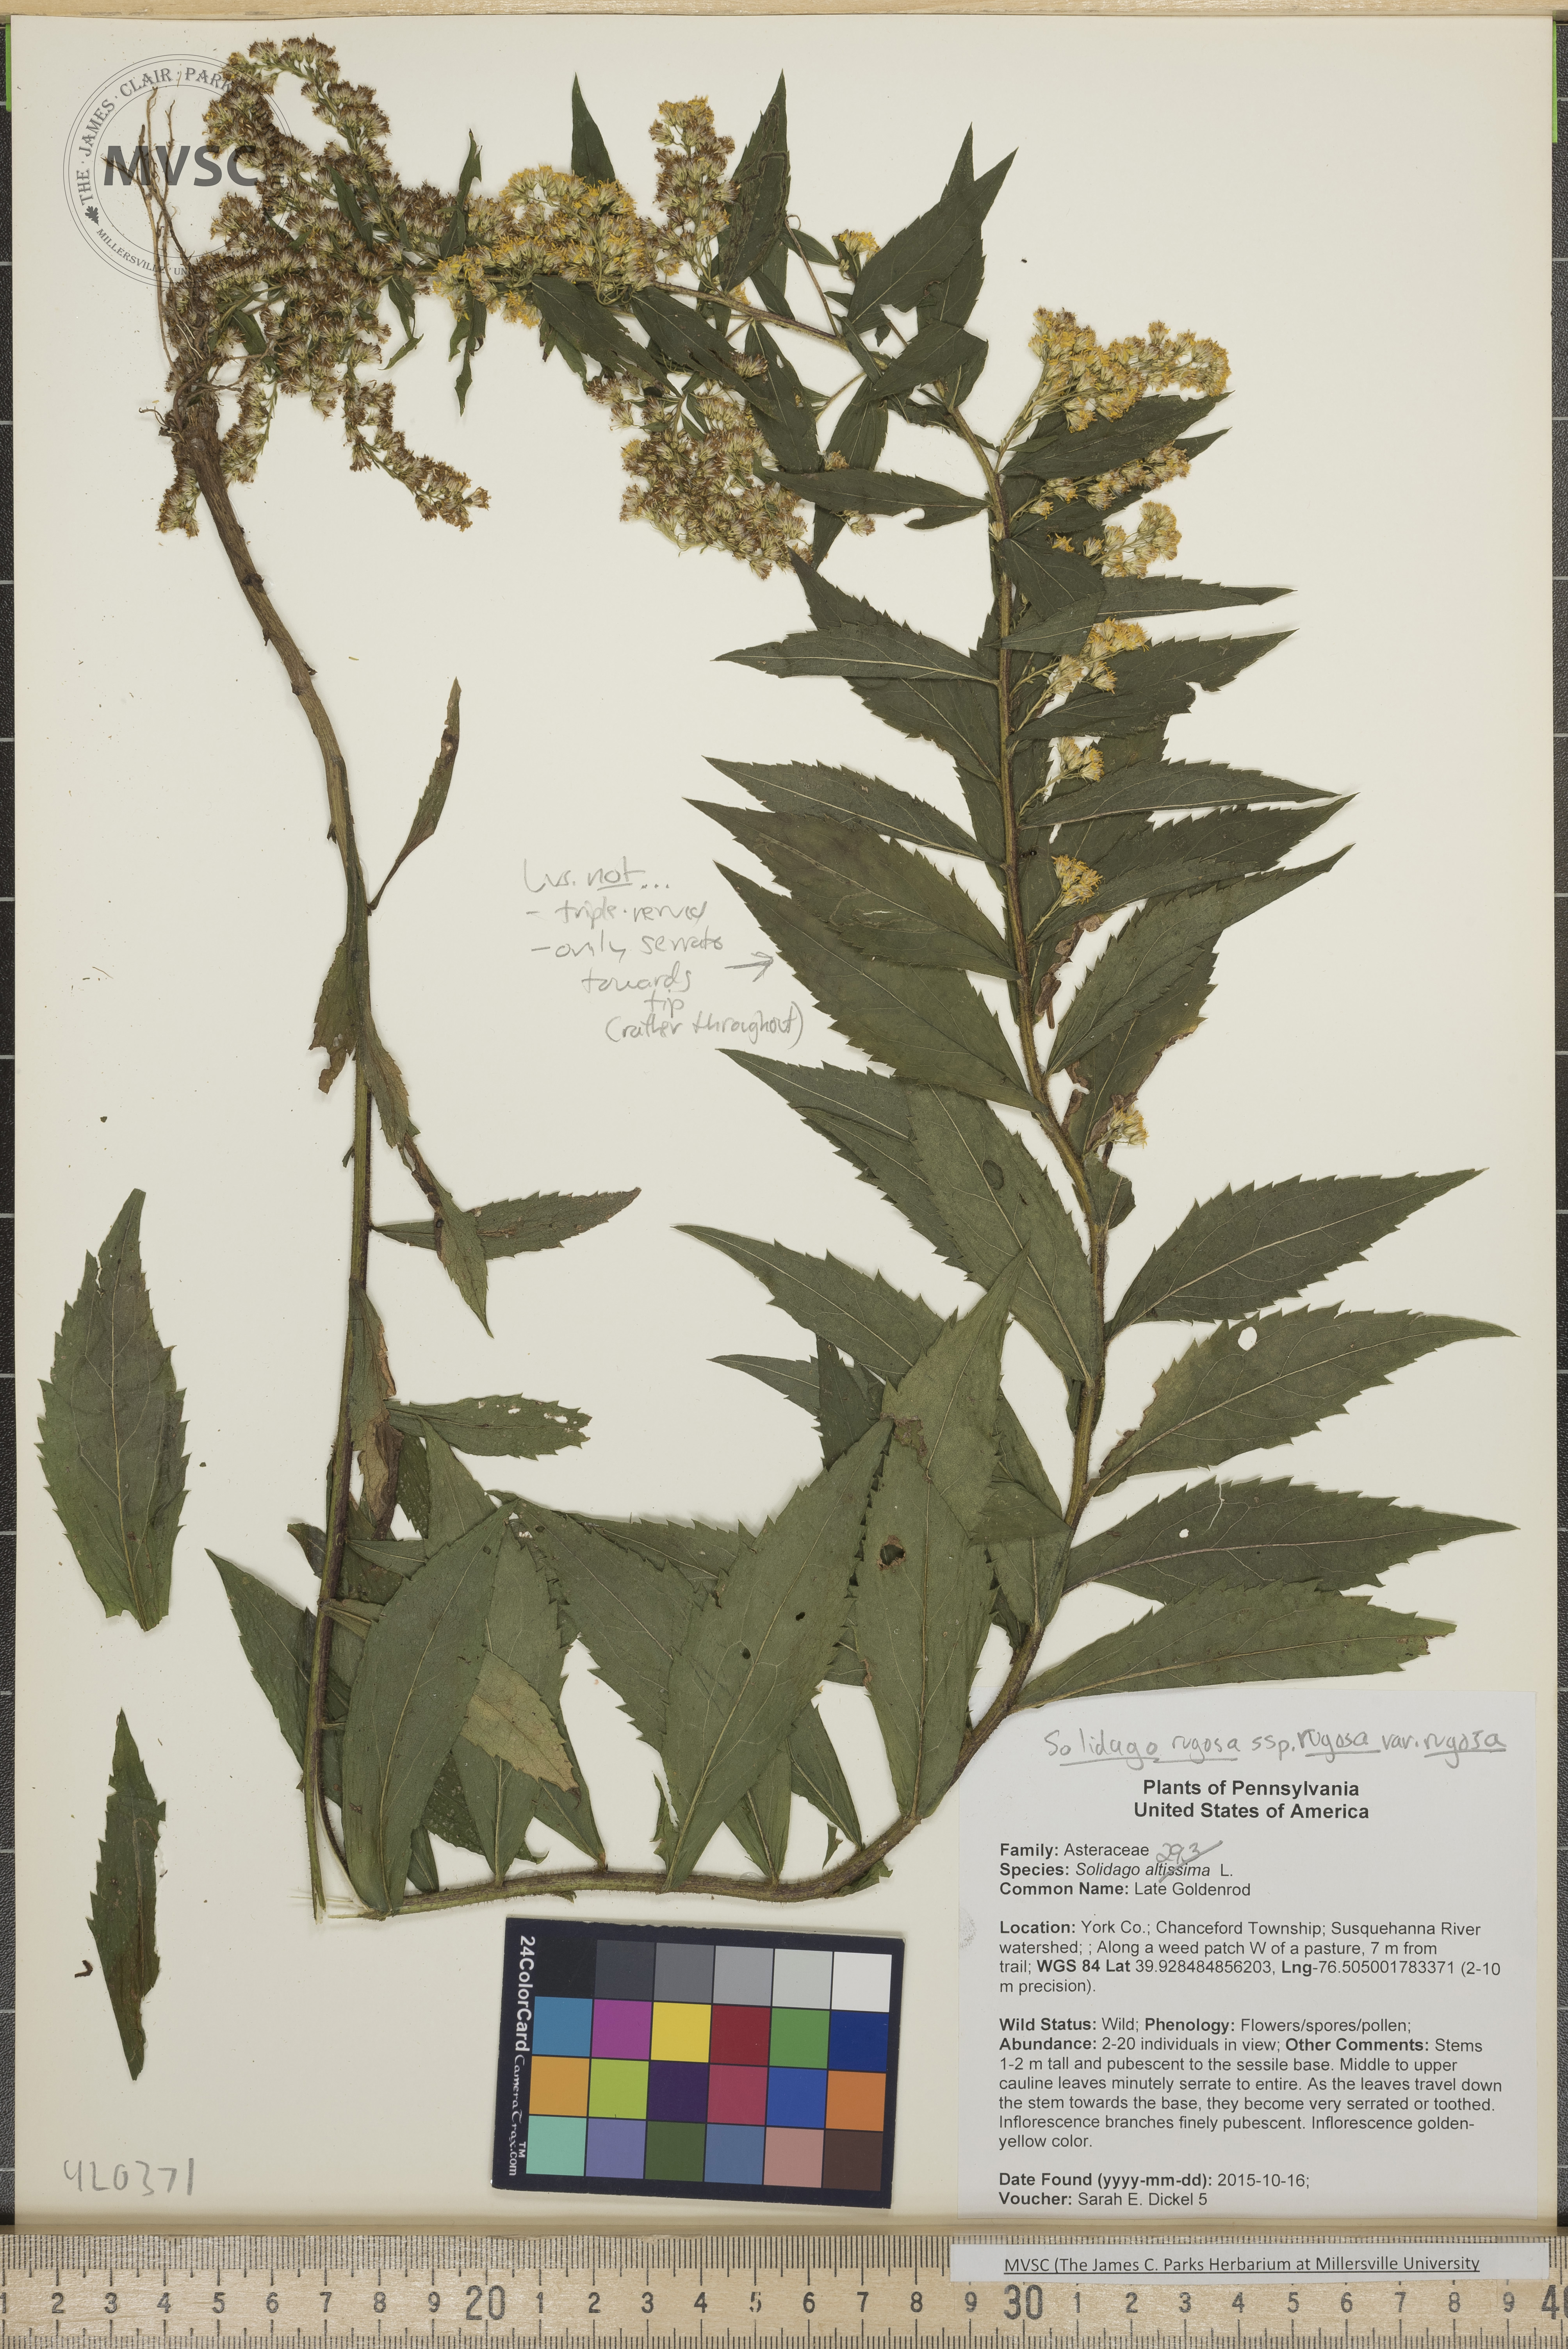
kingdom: Plantae
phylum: Tracheophyta
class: Magnoliopsida
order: Asterales
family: Asteraceae
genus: Solidago
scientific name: Solidago rugosa
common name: Goldenrod
